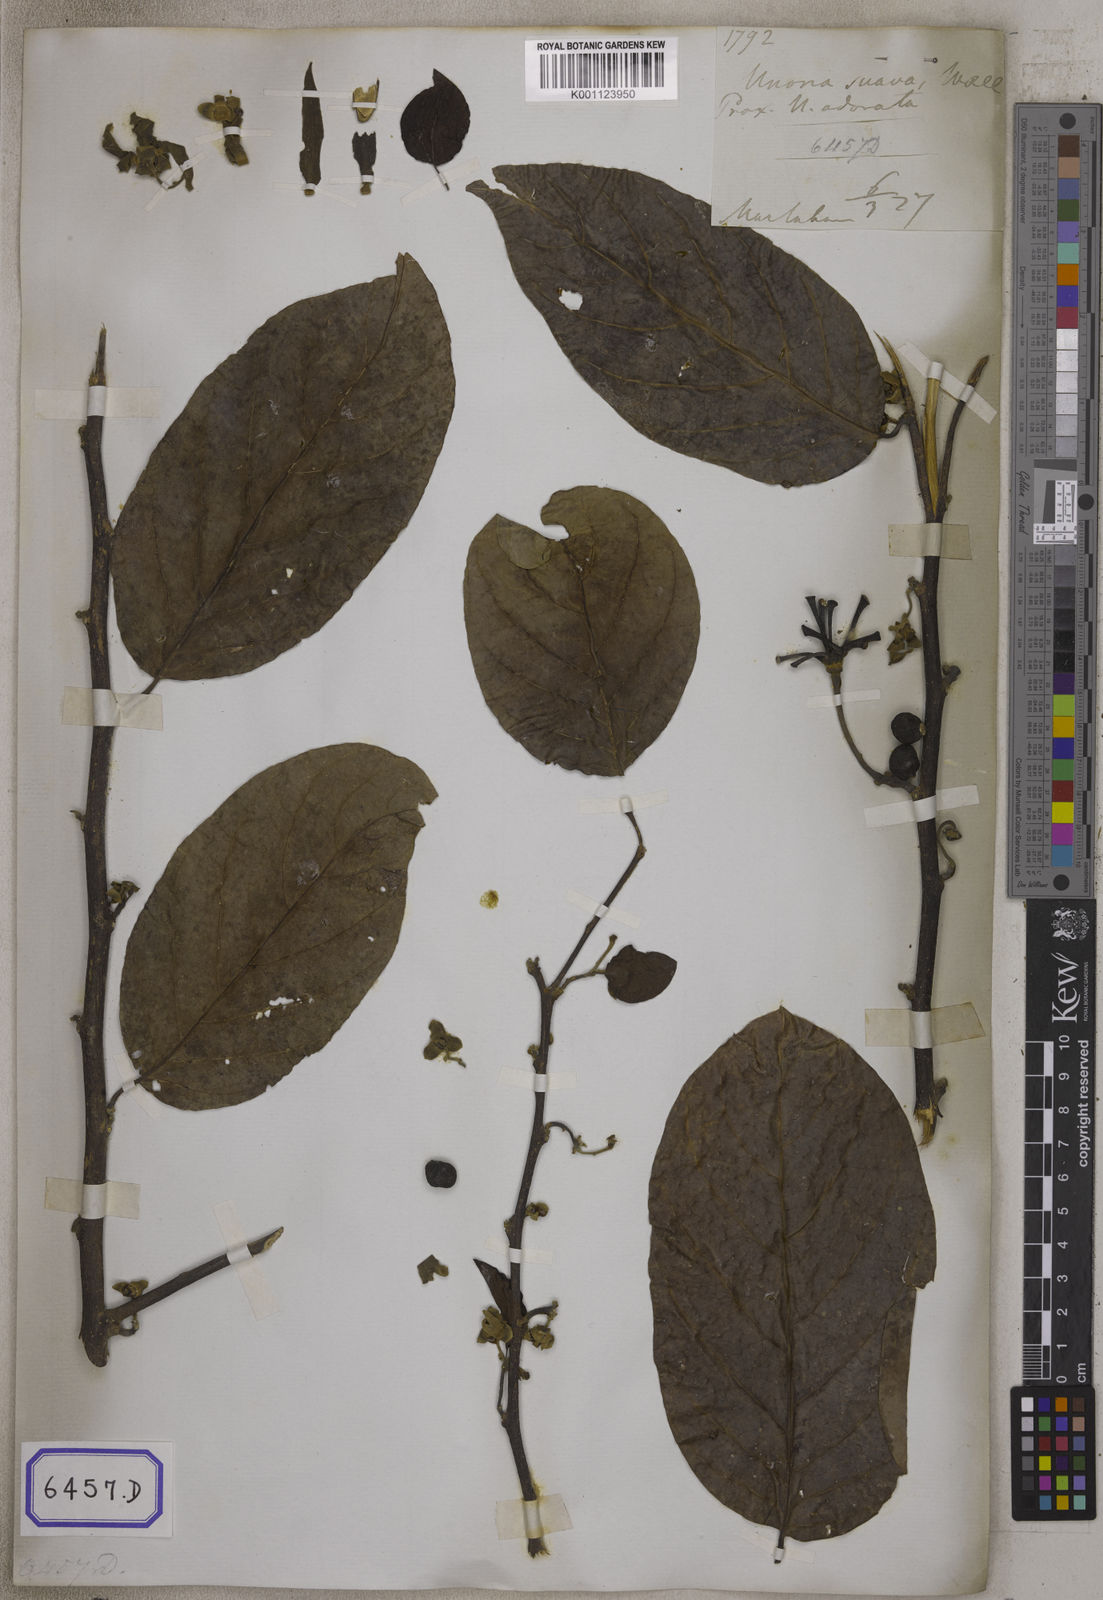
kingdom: Plantae
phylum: Tracheophyta
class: Magnoliopsida
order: Magnoliales
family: Annonaceae
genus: Uvaria
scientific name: Uvaria
